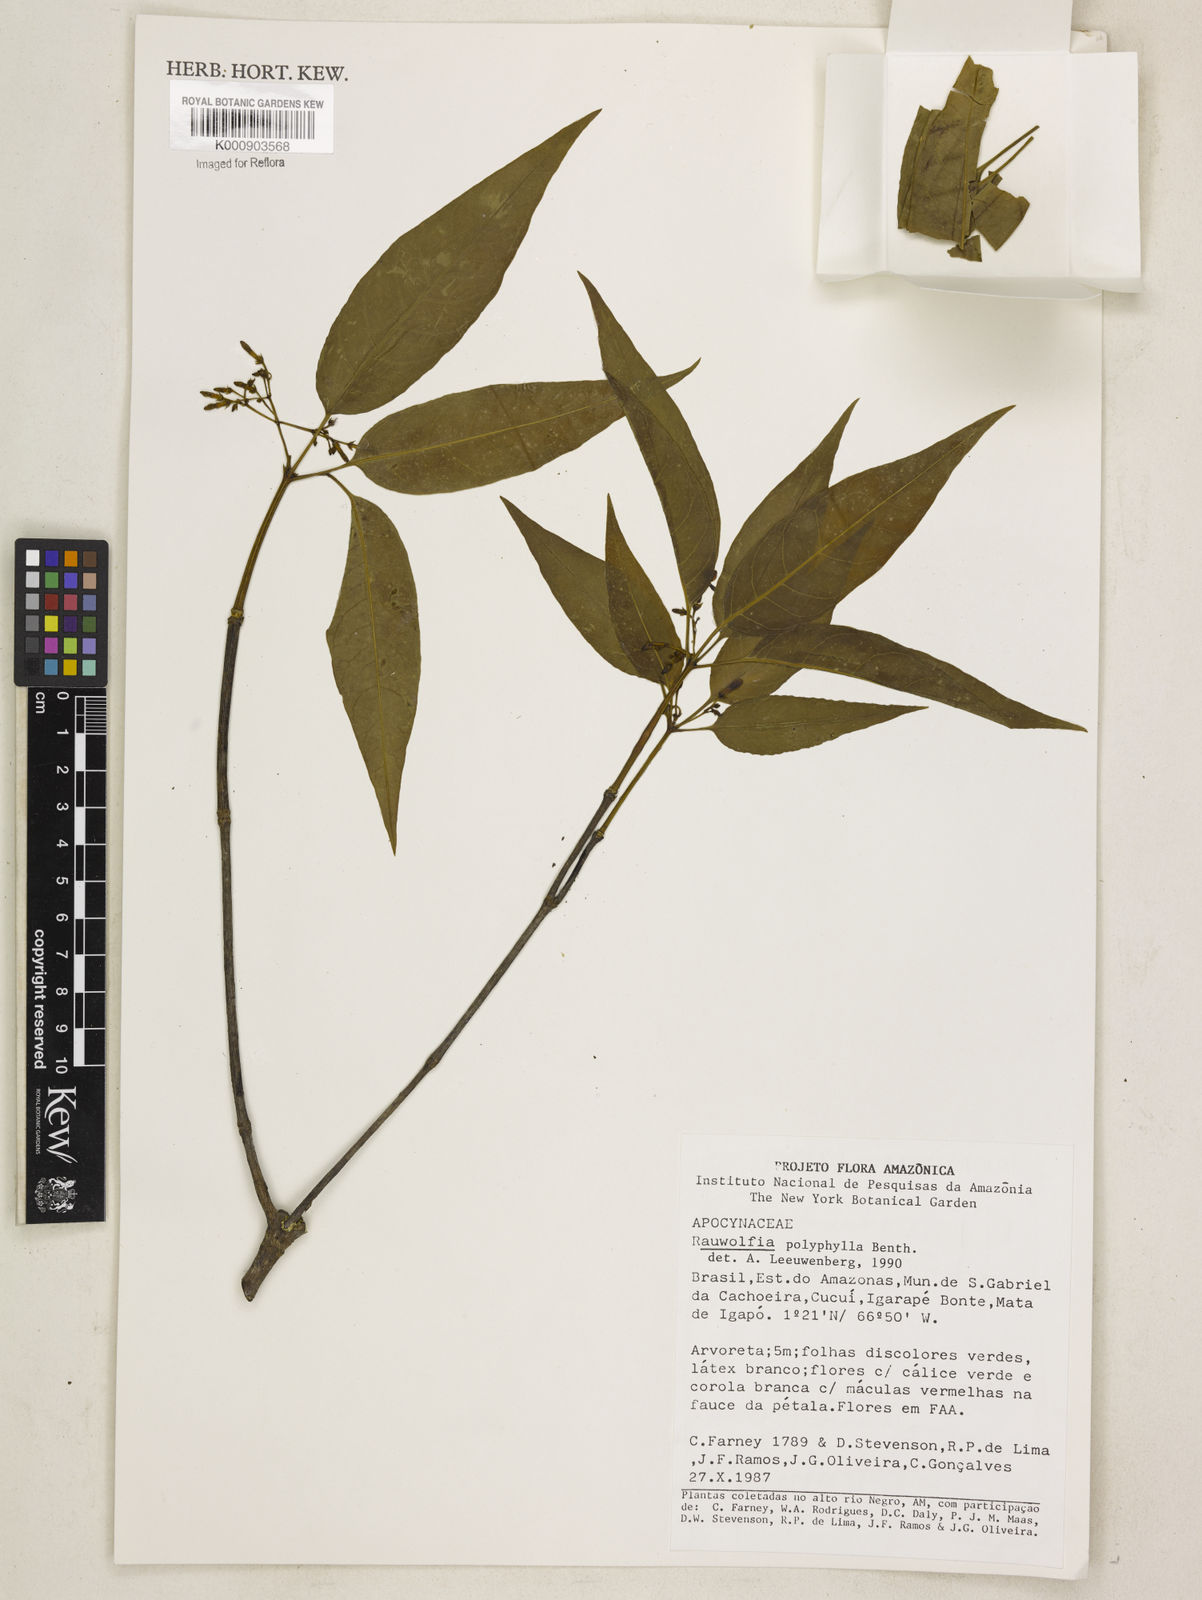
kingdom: Plantae
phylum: Tracheophyta
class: Magnoliopsida
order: Gentianales
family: Apocynaceae
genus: Rauvolfia
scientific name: Rauvolfia polyphylla
